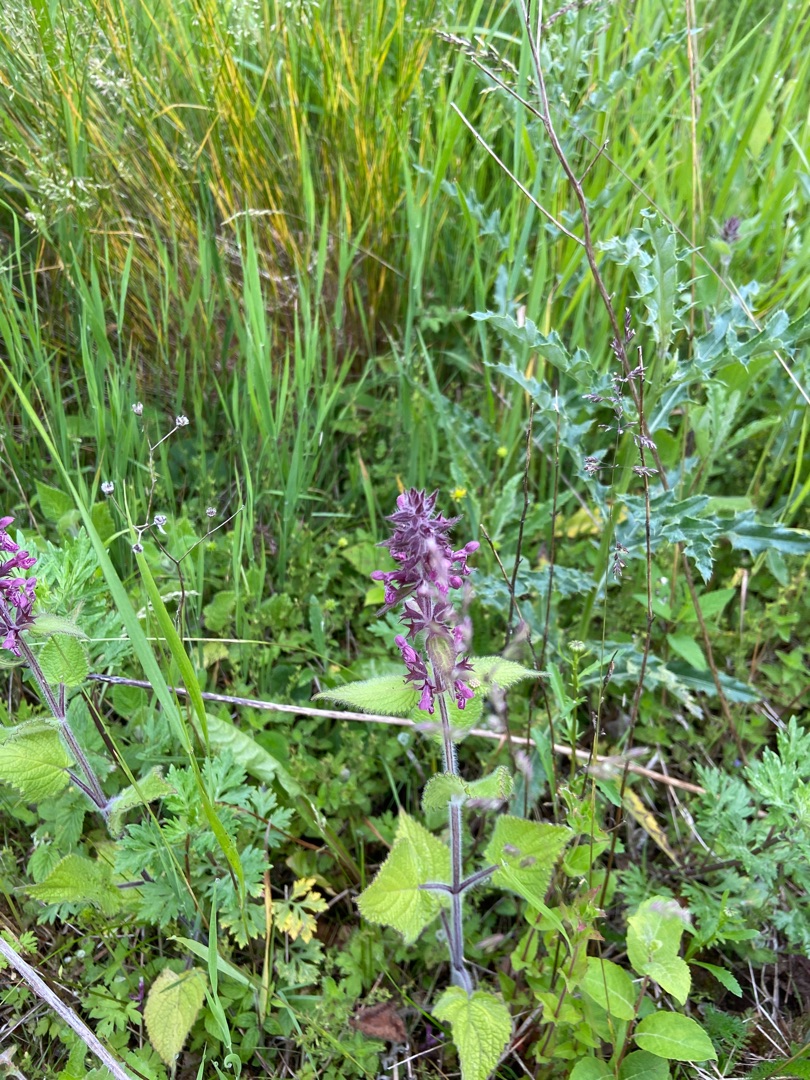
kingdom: Plantae
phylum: Tracheophyta
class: Magnoliopsida
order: Lamiales
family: Lamiaceae
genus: Stachys
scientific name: Stachys sylvatica
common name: Skov-galtetand
